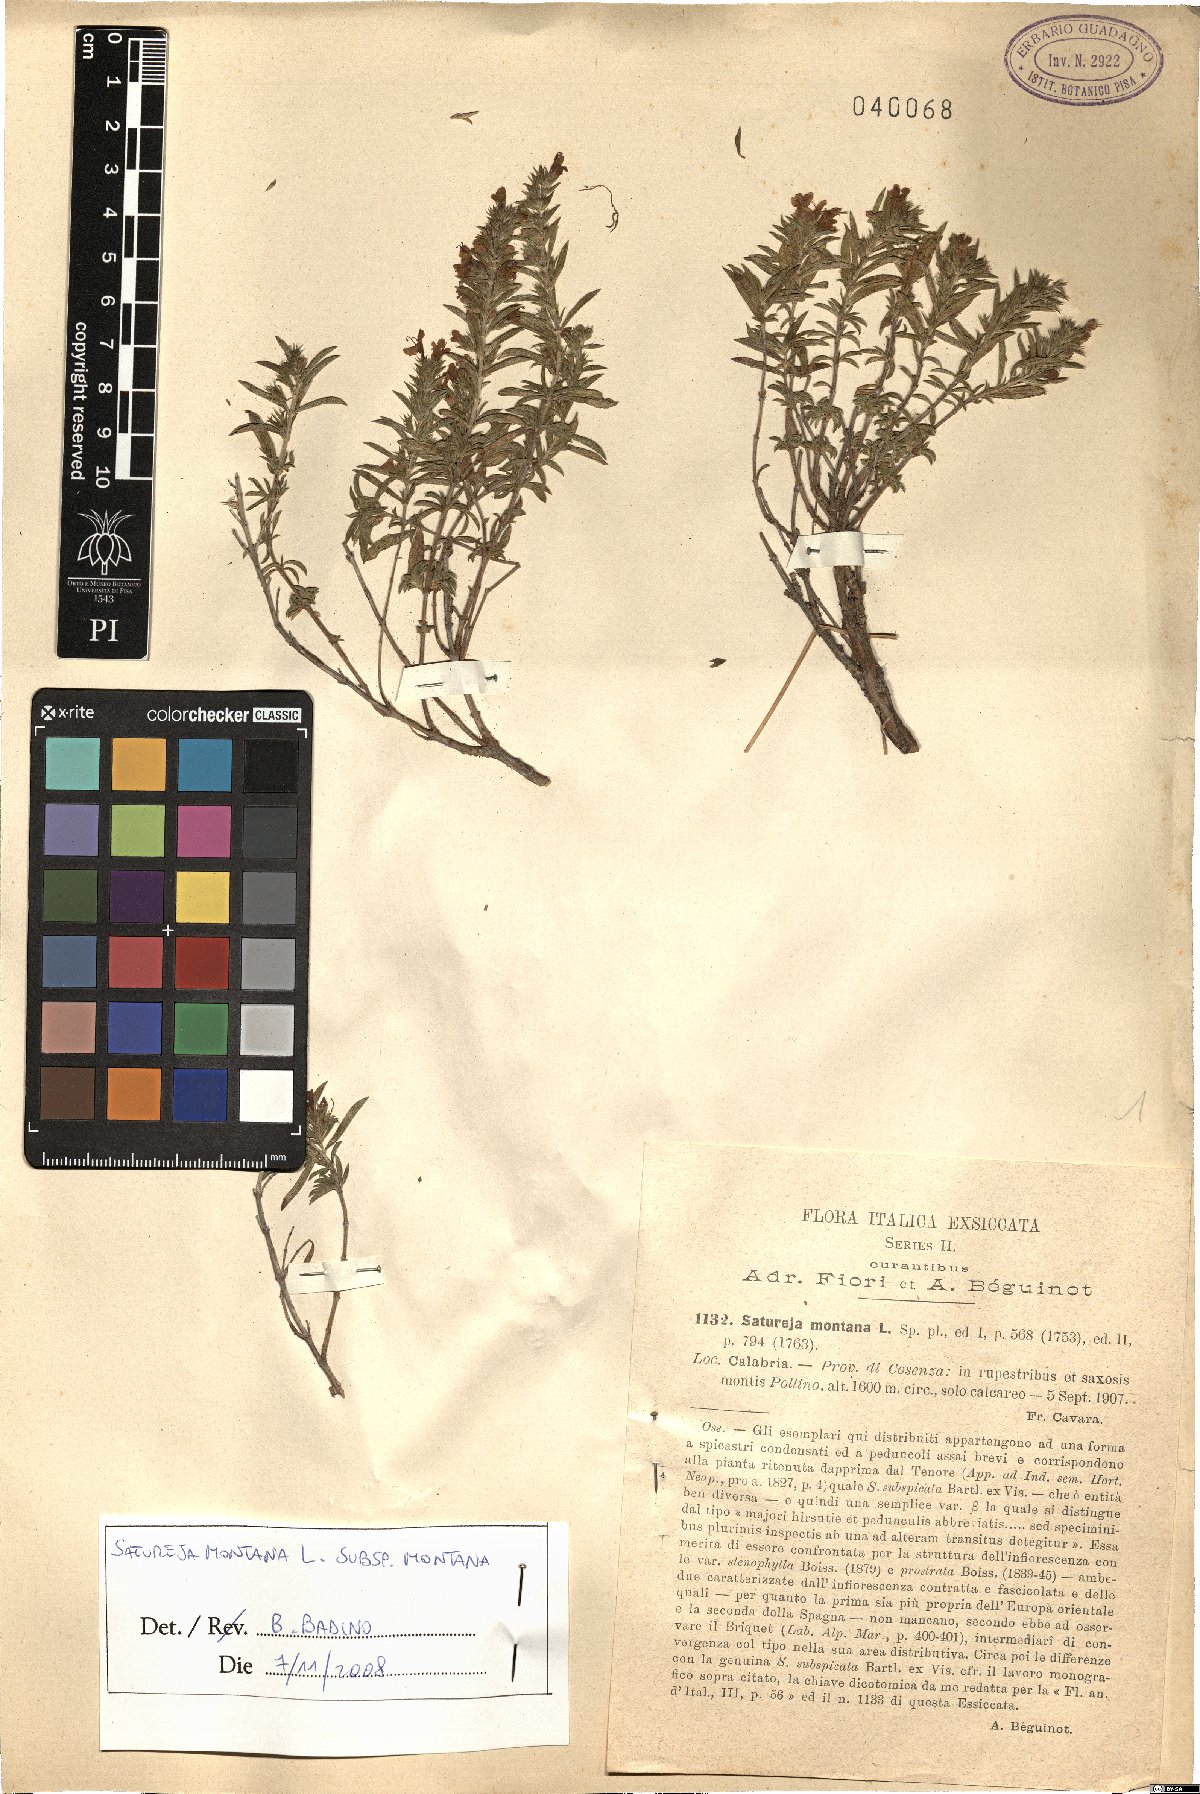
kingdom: Plantae
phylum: Tracheophyta
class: Magnoliopsida
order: Lamiales
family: Lamiaceae
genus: Satureja
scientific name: Satureja montana
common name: Winter savory
